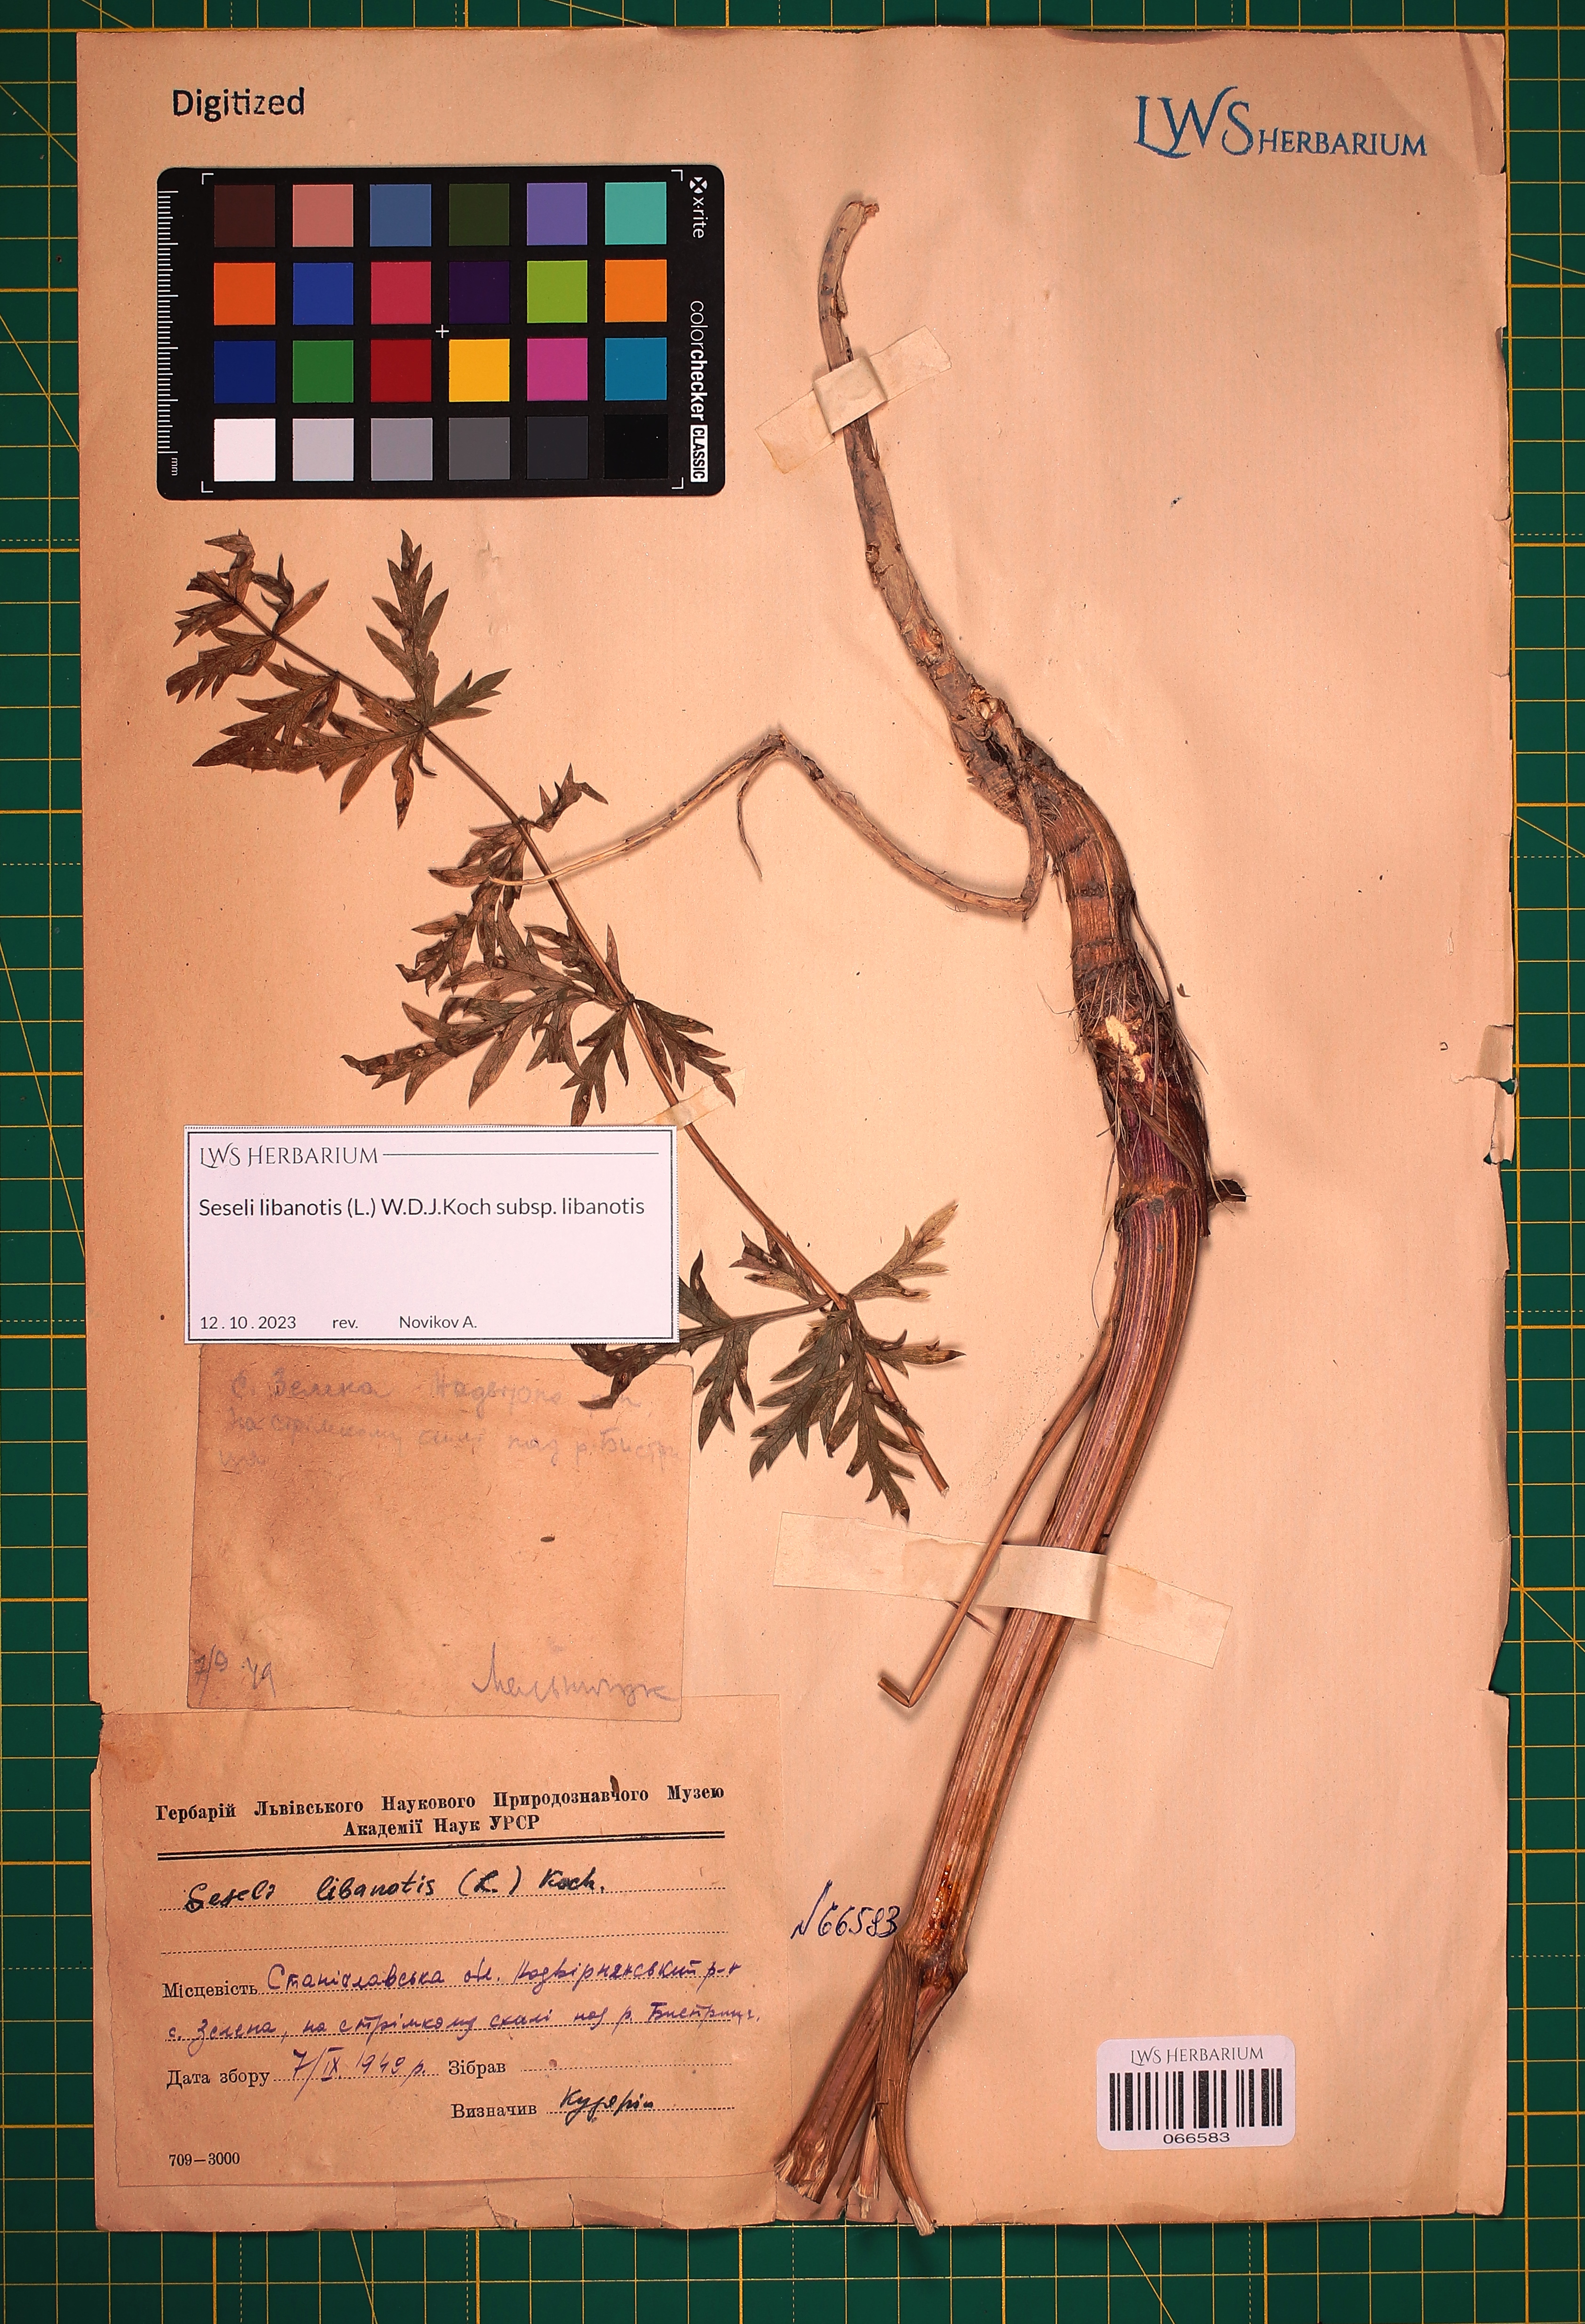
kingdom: Plantae
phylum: Tracheophyta
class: Magnoliopsida
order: Apiales
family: Apiaceae
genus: Seseli
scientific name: Seseli libanotis
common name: Mooncarrot
